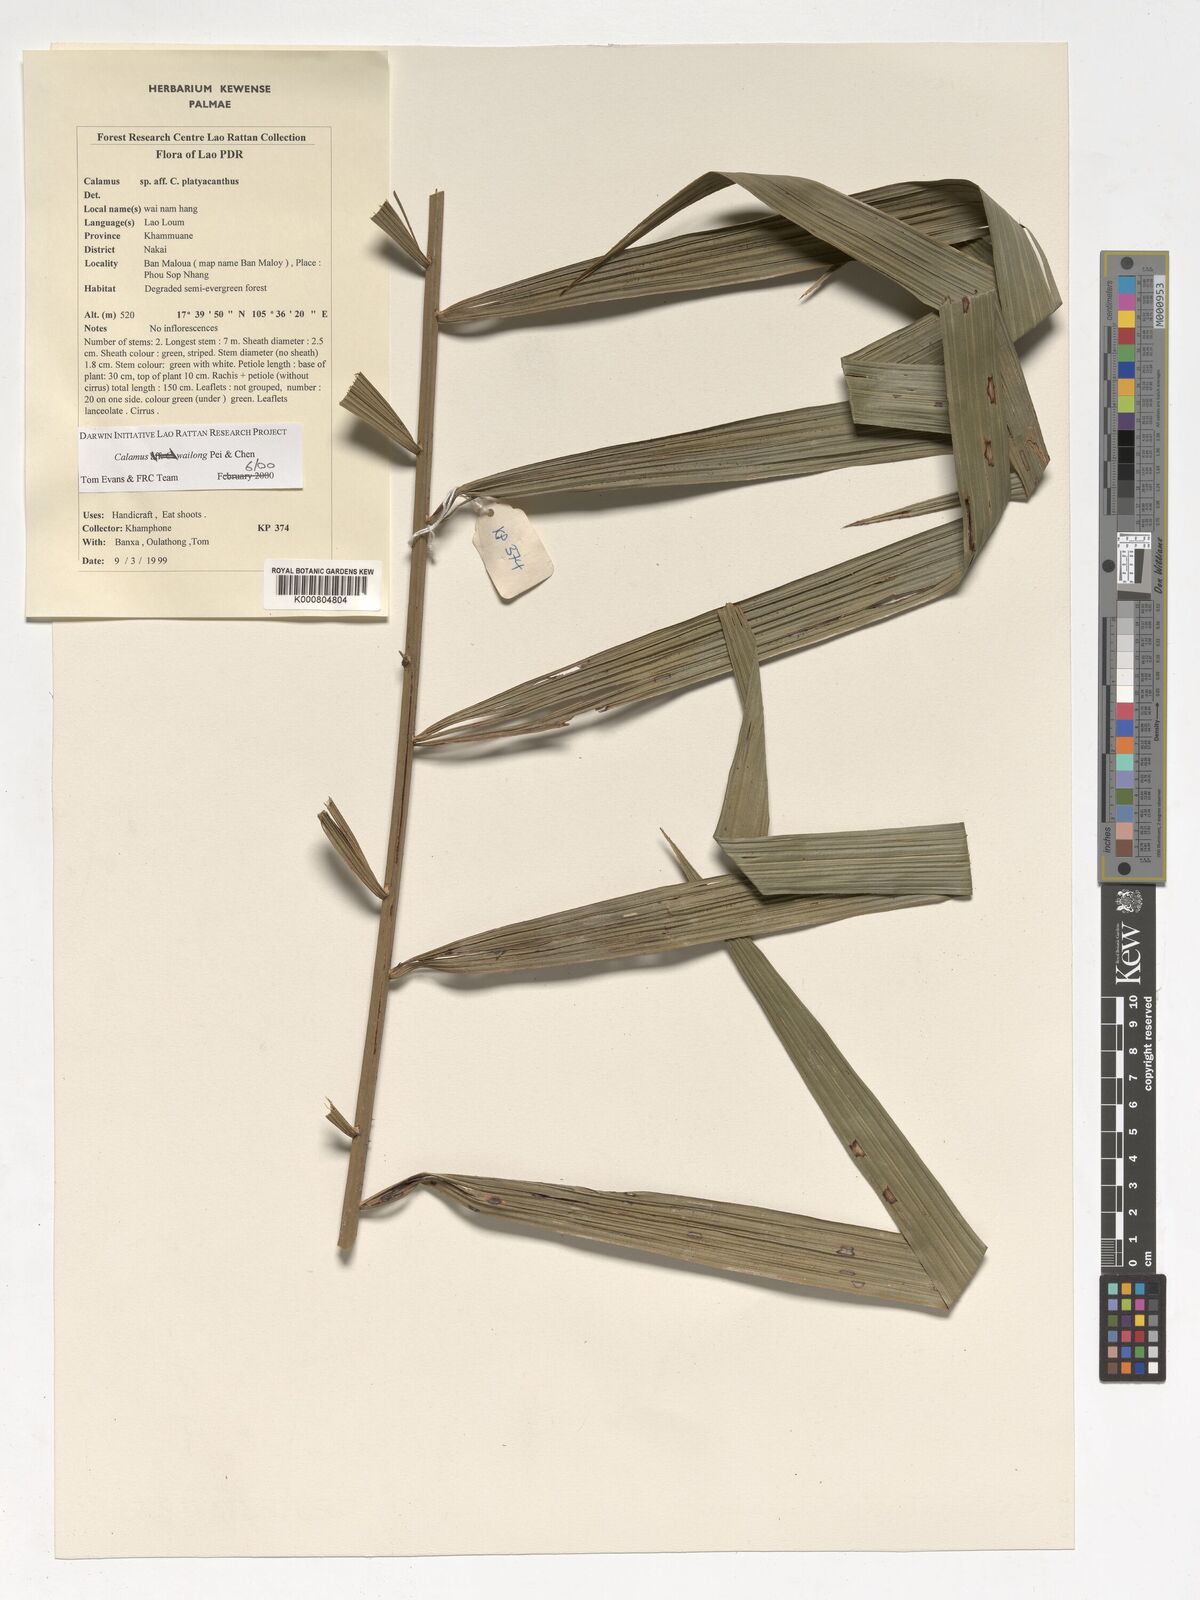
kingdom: Plantae
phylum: Tracheophyta
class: Liliopsida
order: Arecales
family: Arecaceae
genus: Calamus
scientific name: Calamus inermis
